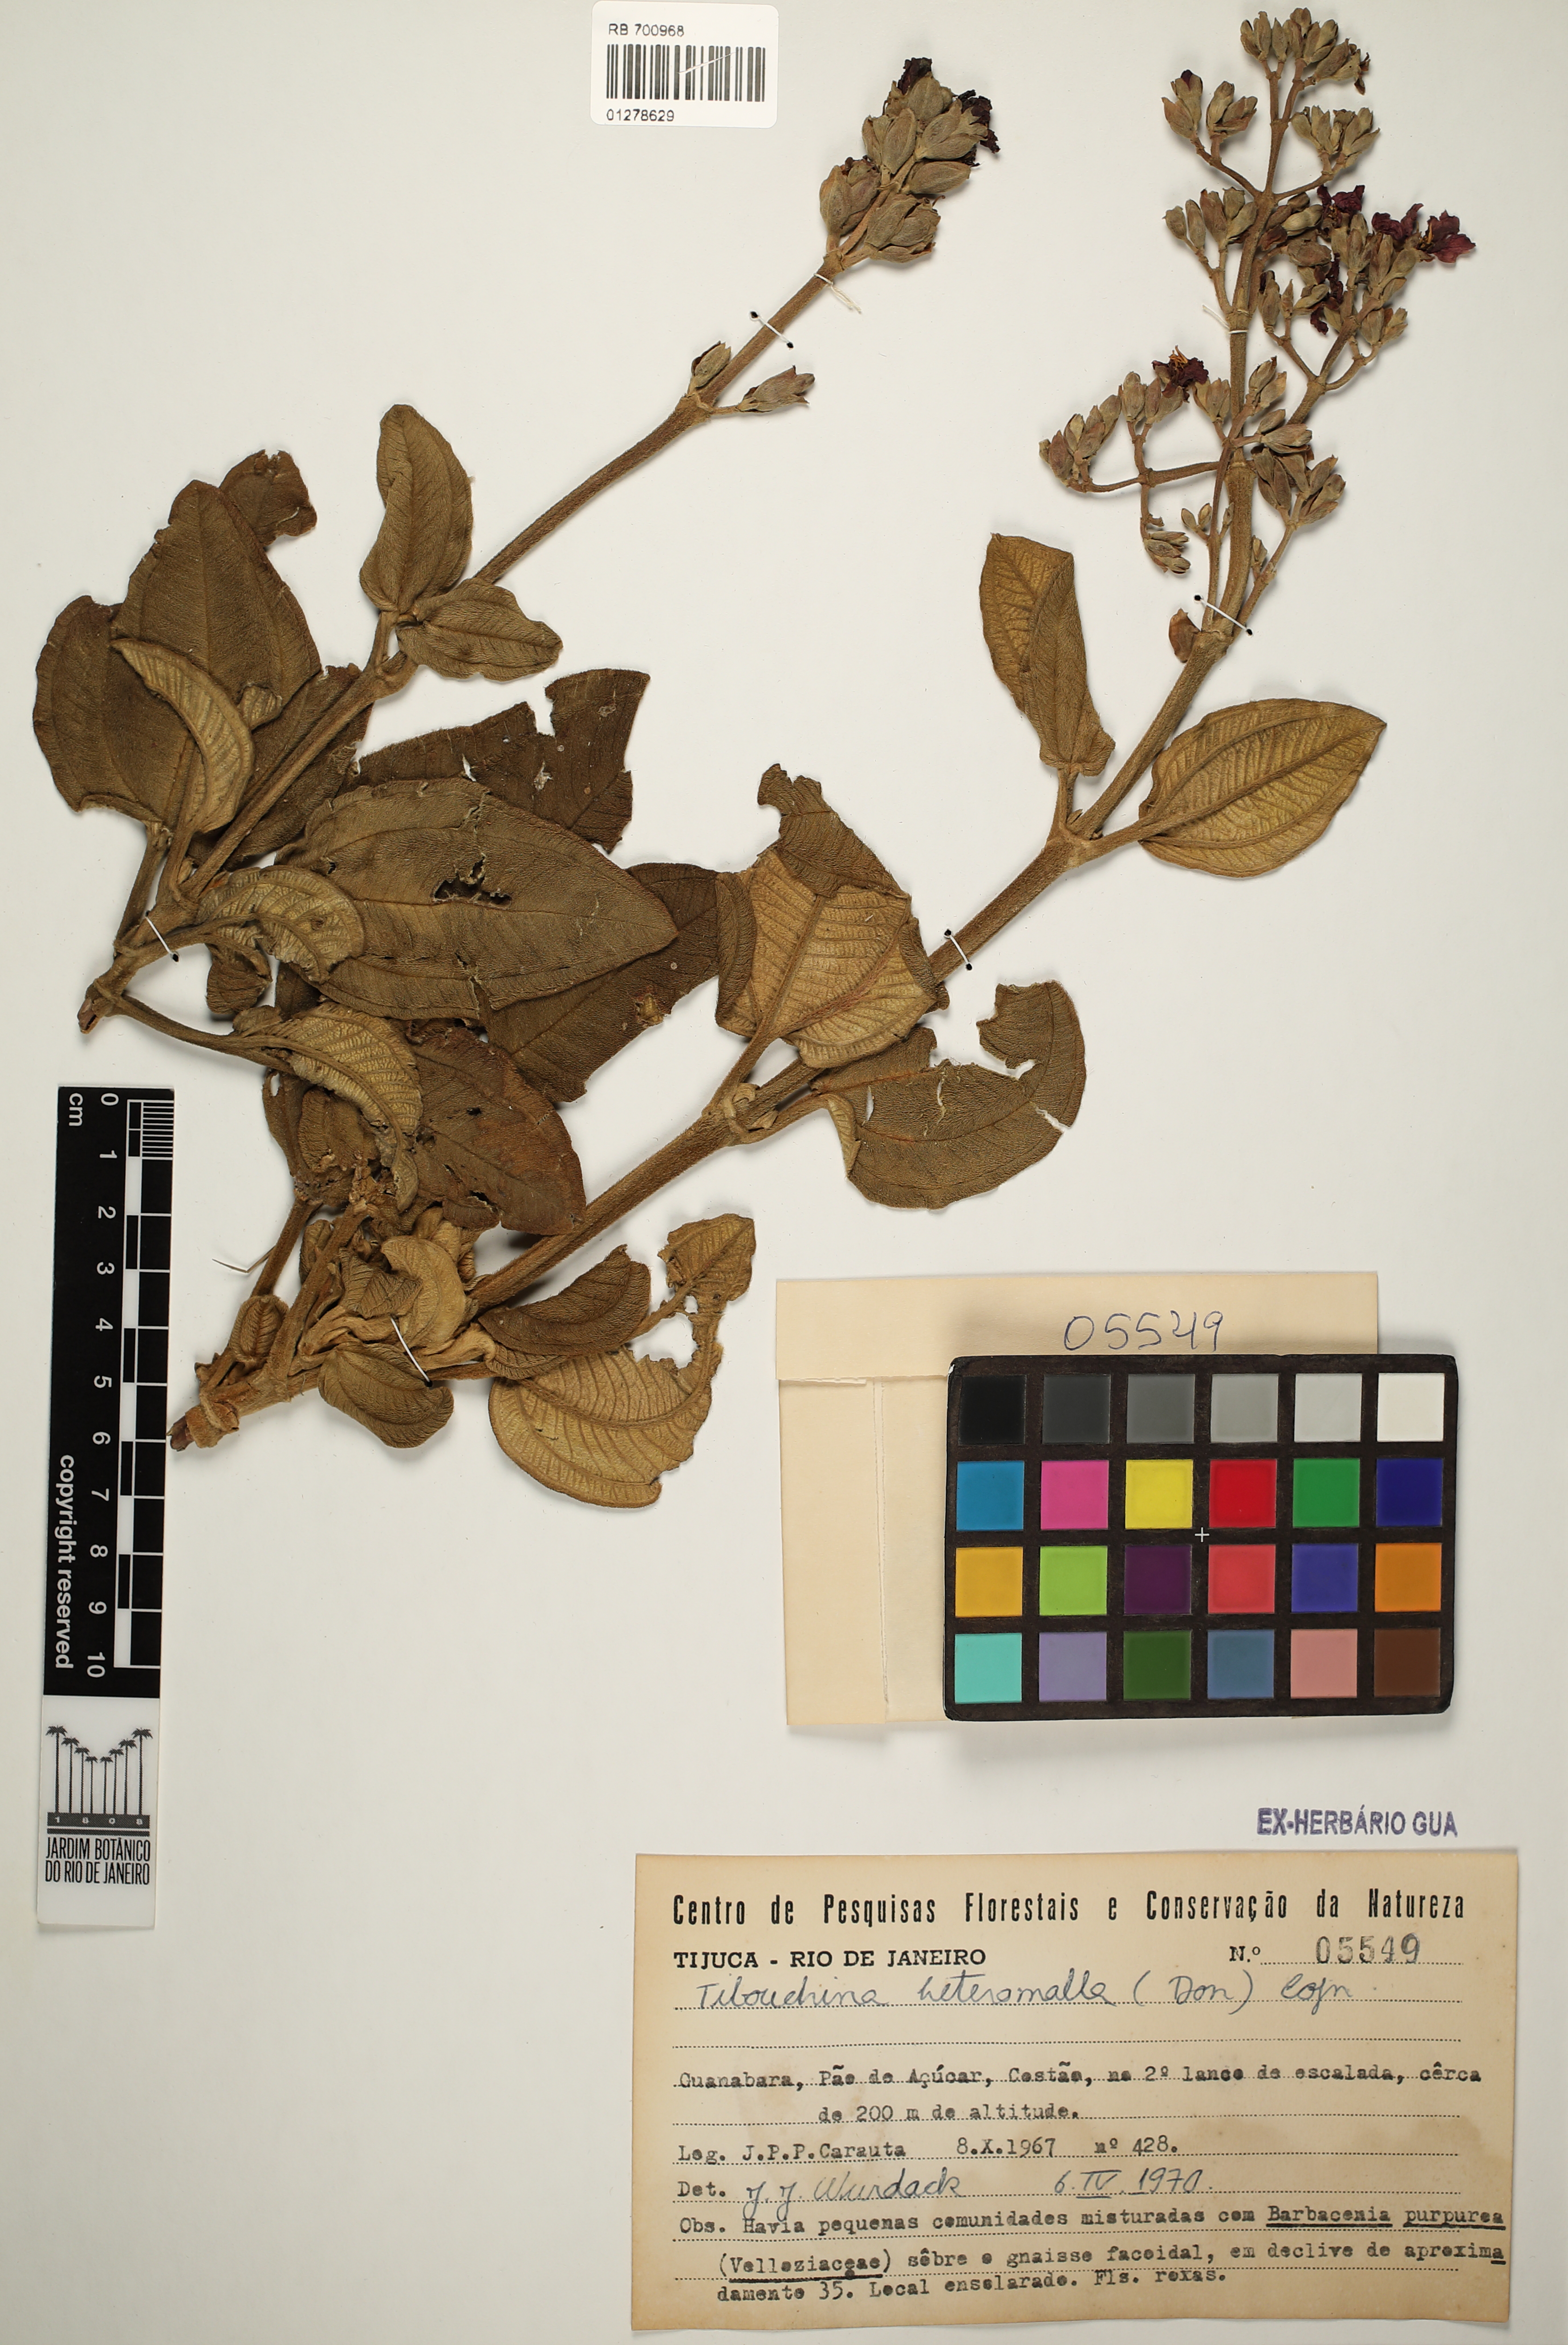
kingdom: Plantae
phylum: Tracheophyta
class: Magnoliopsida
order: Myrtales
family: Melastomataceae
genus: Pleroma
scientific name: Pleroma heteromallum
